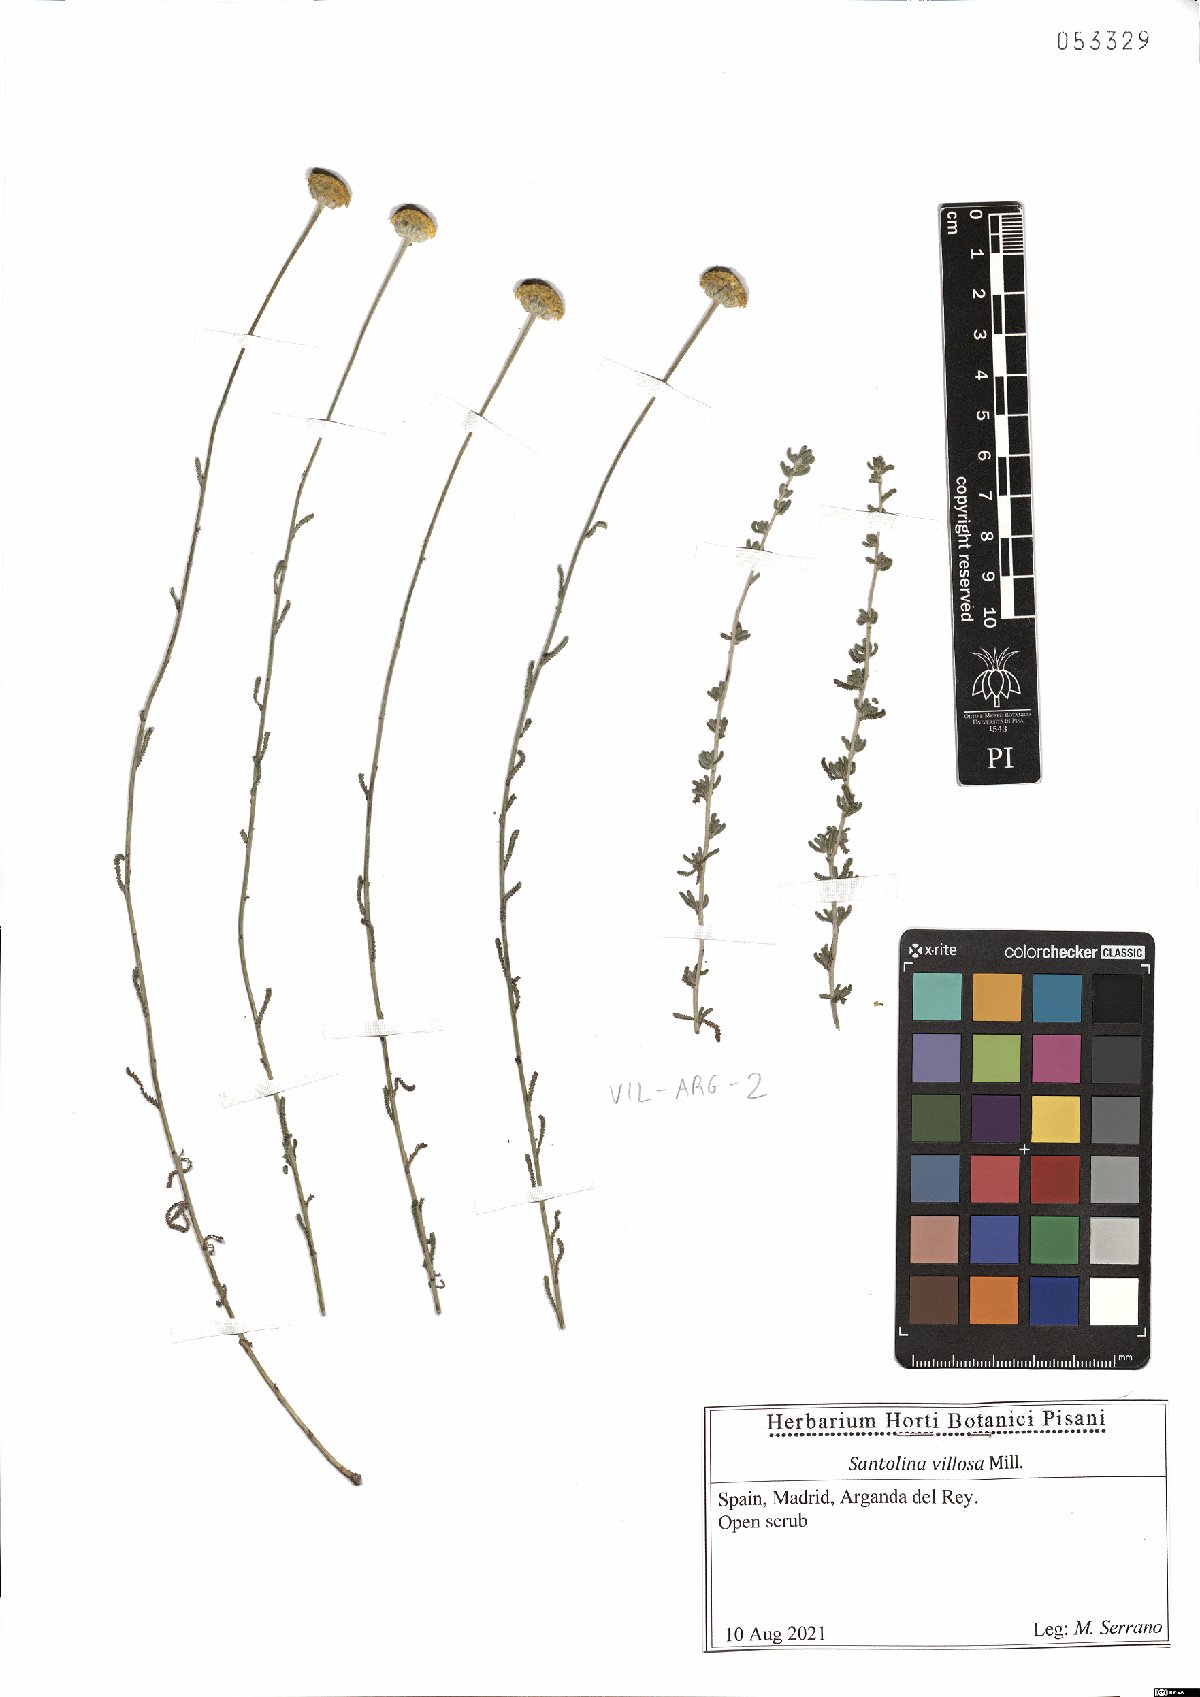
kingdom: Plantae
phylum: Tracheophyta
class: Magnoliopsida
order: Asterales
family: Asteraceae
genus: Santolina
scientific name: Santolina chamaecyparissus
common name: Lavender-cotton
